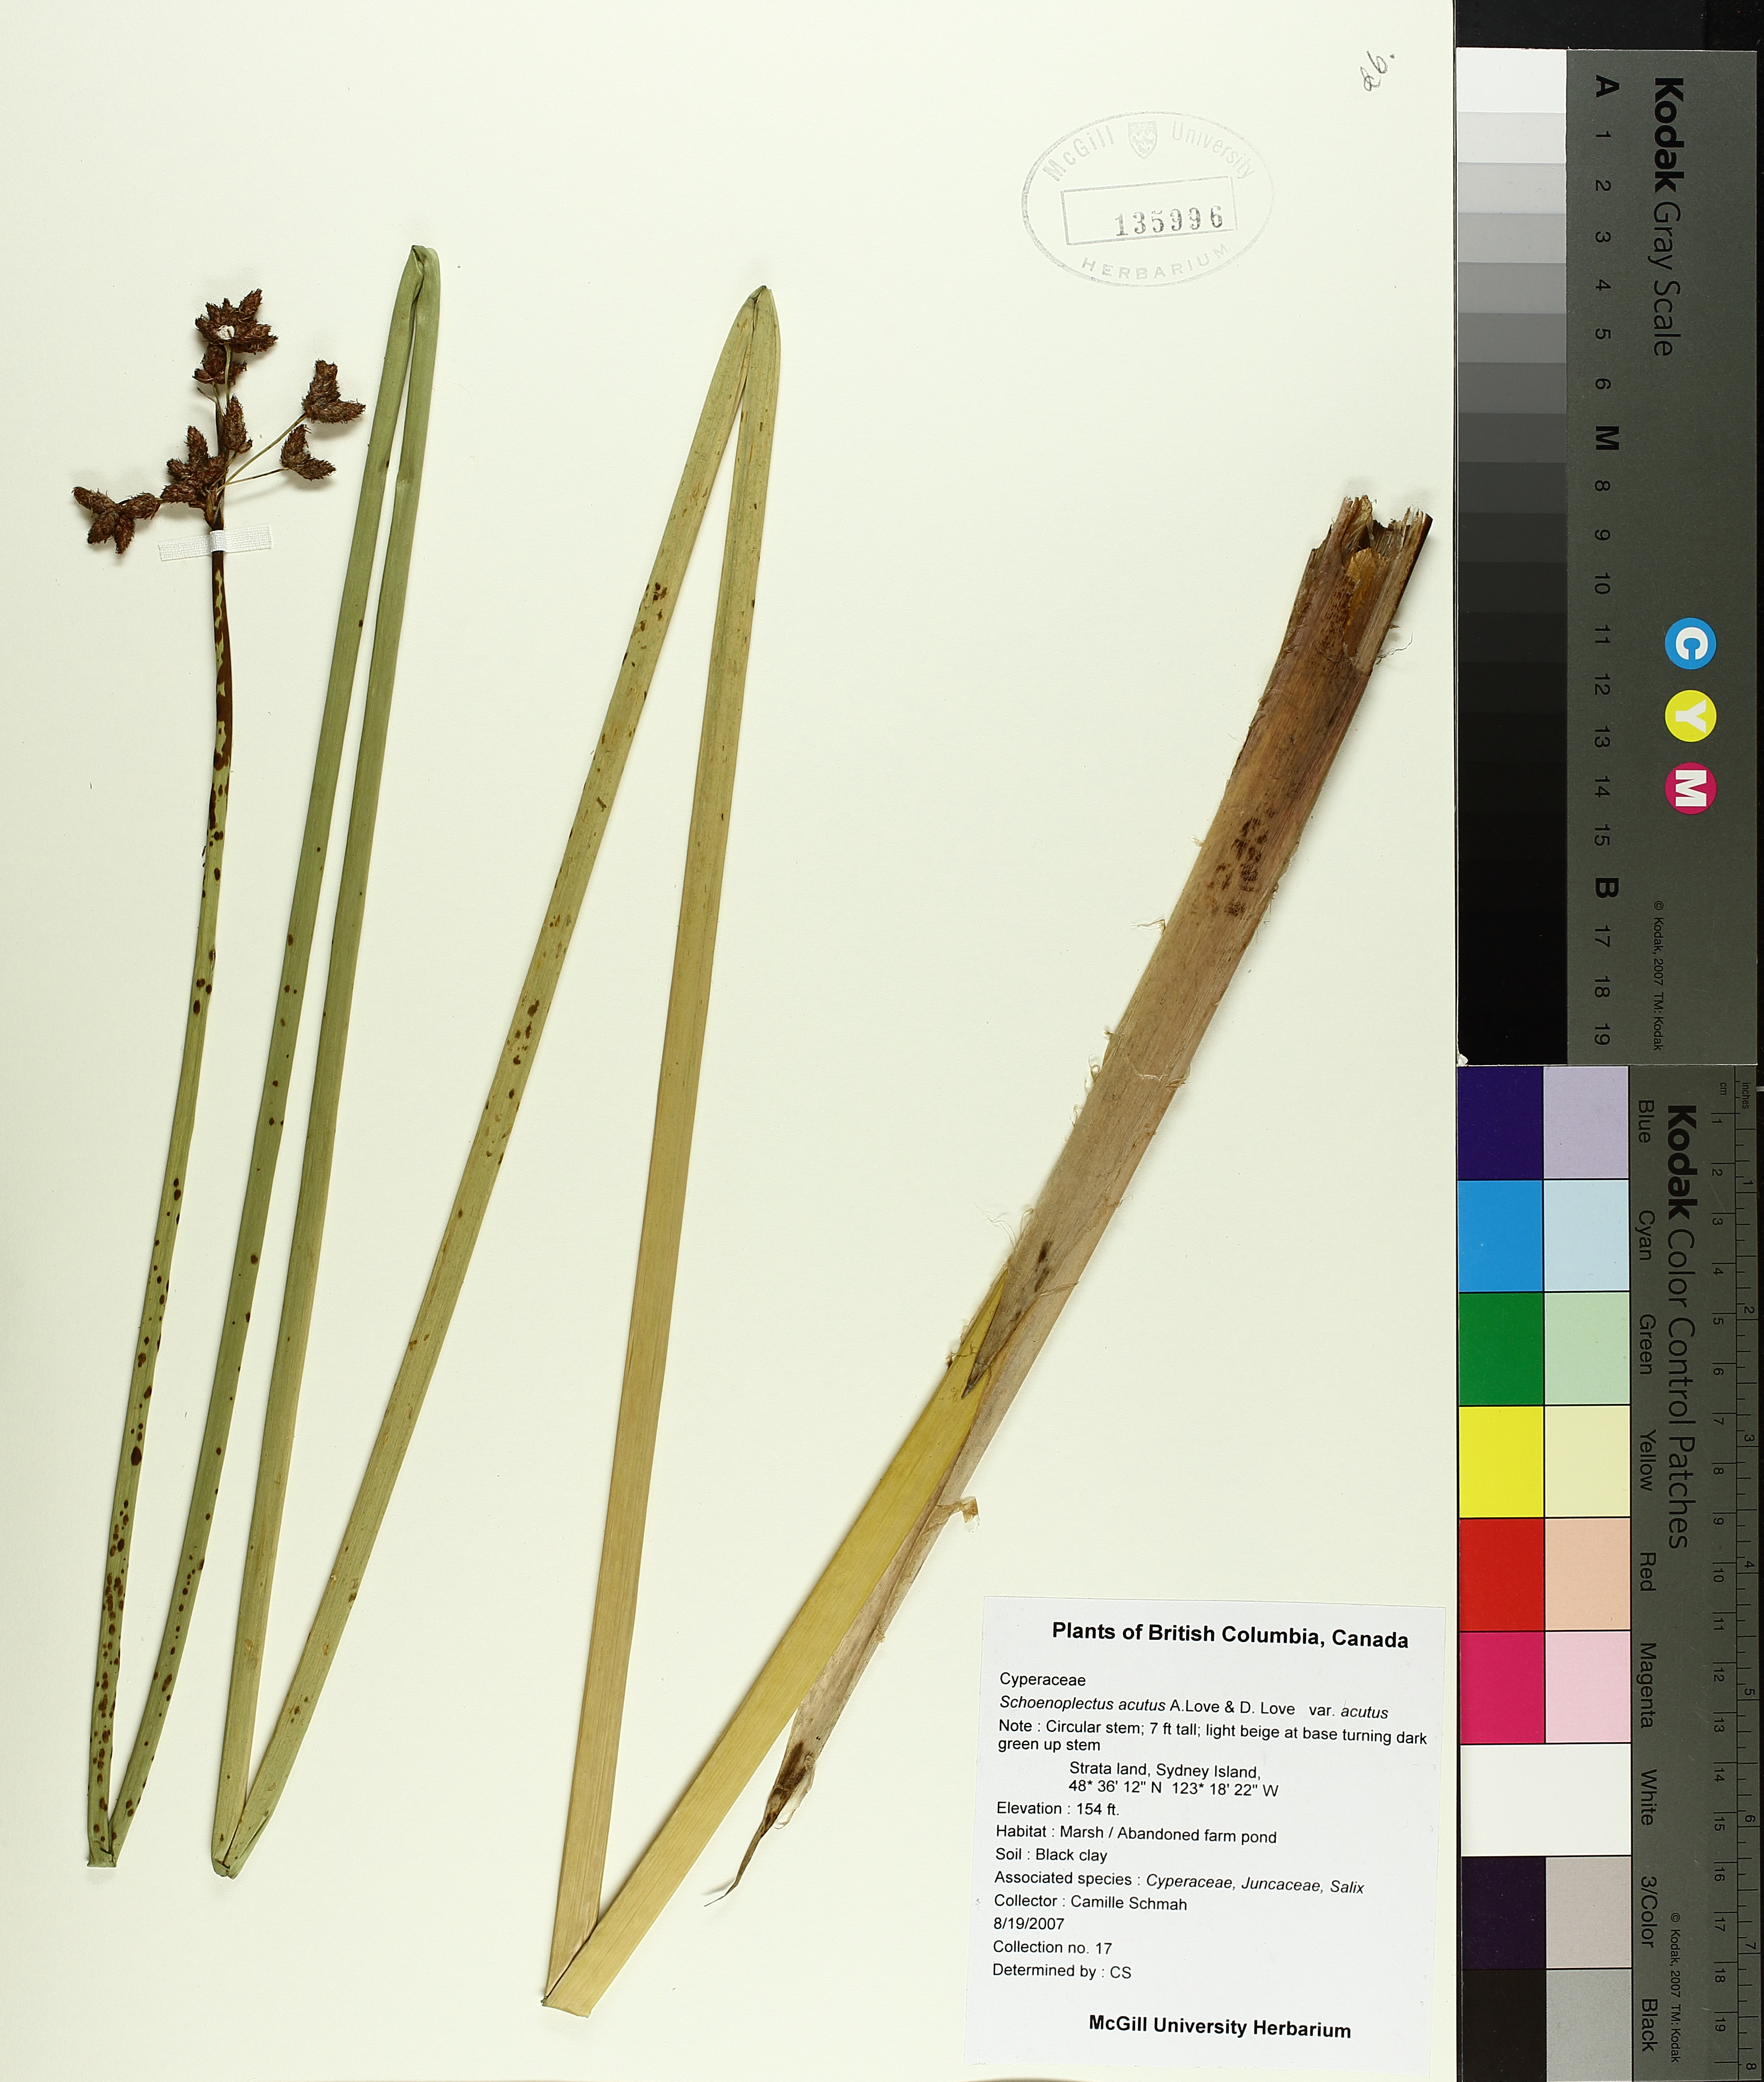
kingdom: Plantae
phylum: Tracheophyta
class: Liliopsida
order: Poales
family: Cyperaceae
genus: Schoenoplectus
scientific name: Schoenoplectus acutus
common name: Hardstem bulrush
